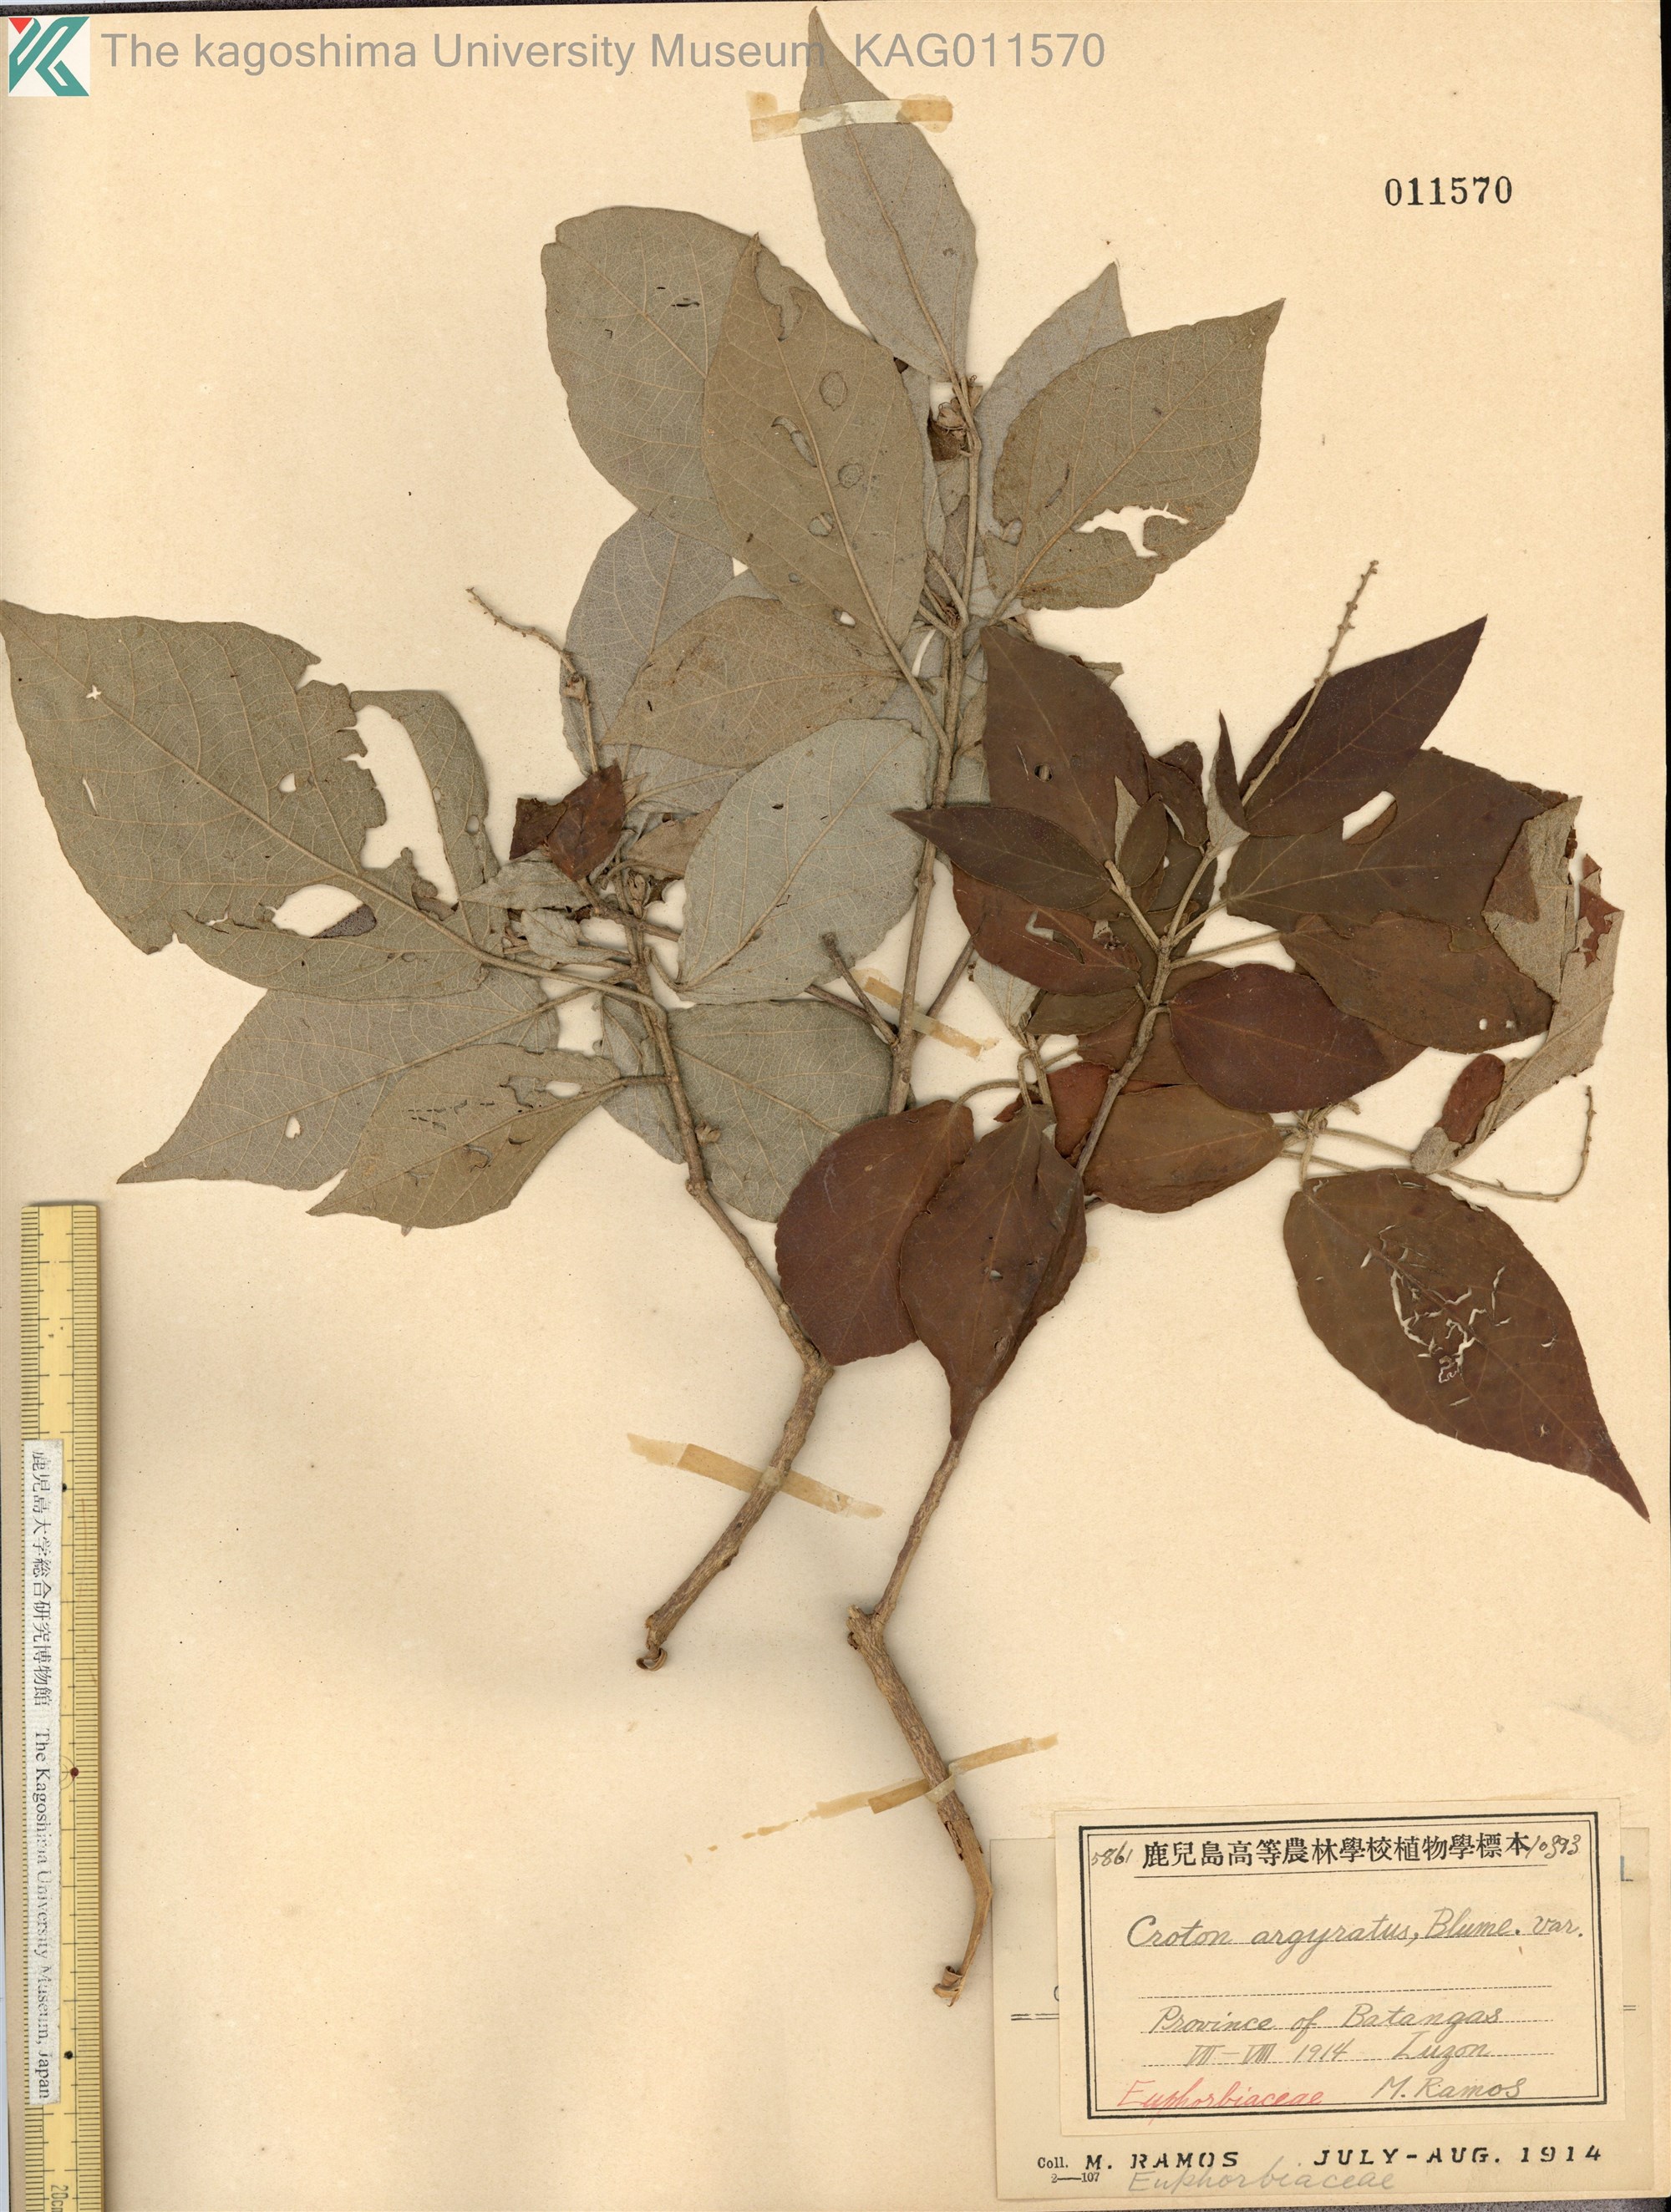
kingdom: Plantae
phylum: Tracheophyta
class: Magnoliopsida
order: Malpighiales
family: Euphorbiaceae
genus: Croton
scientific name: Croton argyratus
